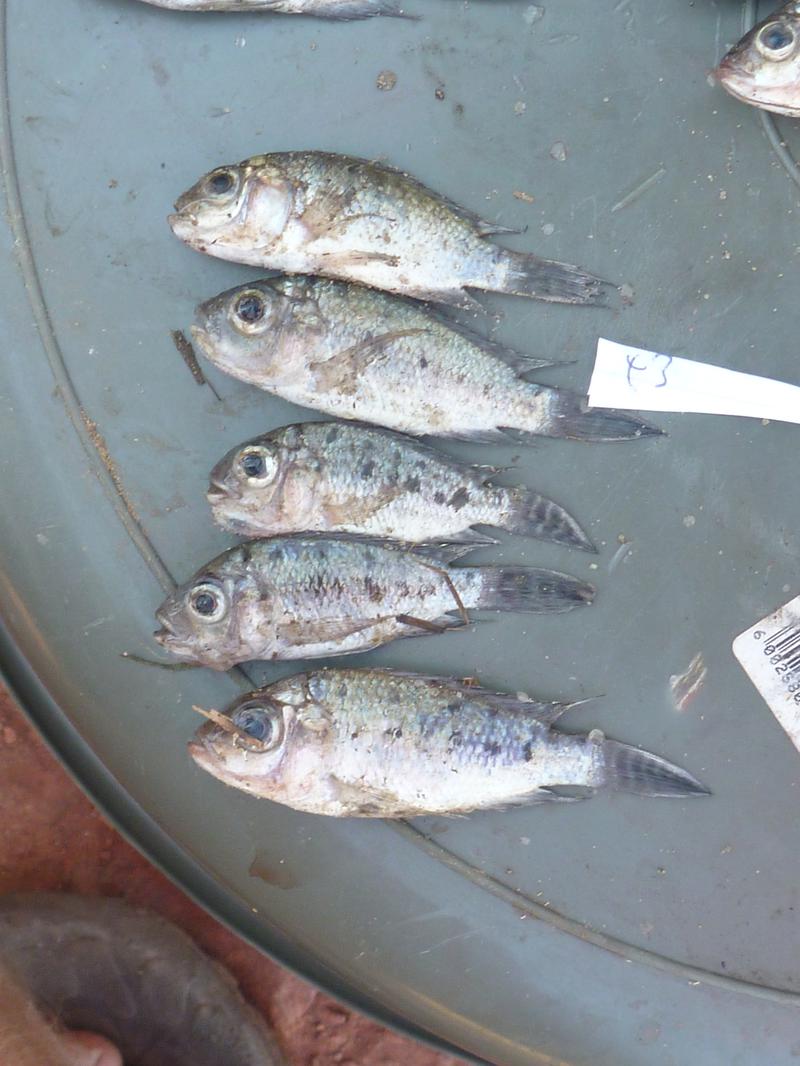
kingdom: Animalia
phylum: Chordata
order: Perciformes
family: Cichlidae
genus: Oreochromis
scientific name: Oreochromis korogwe
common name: Korogwe tilapia
